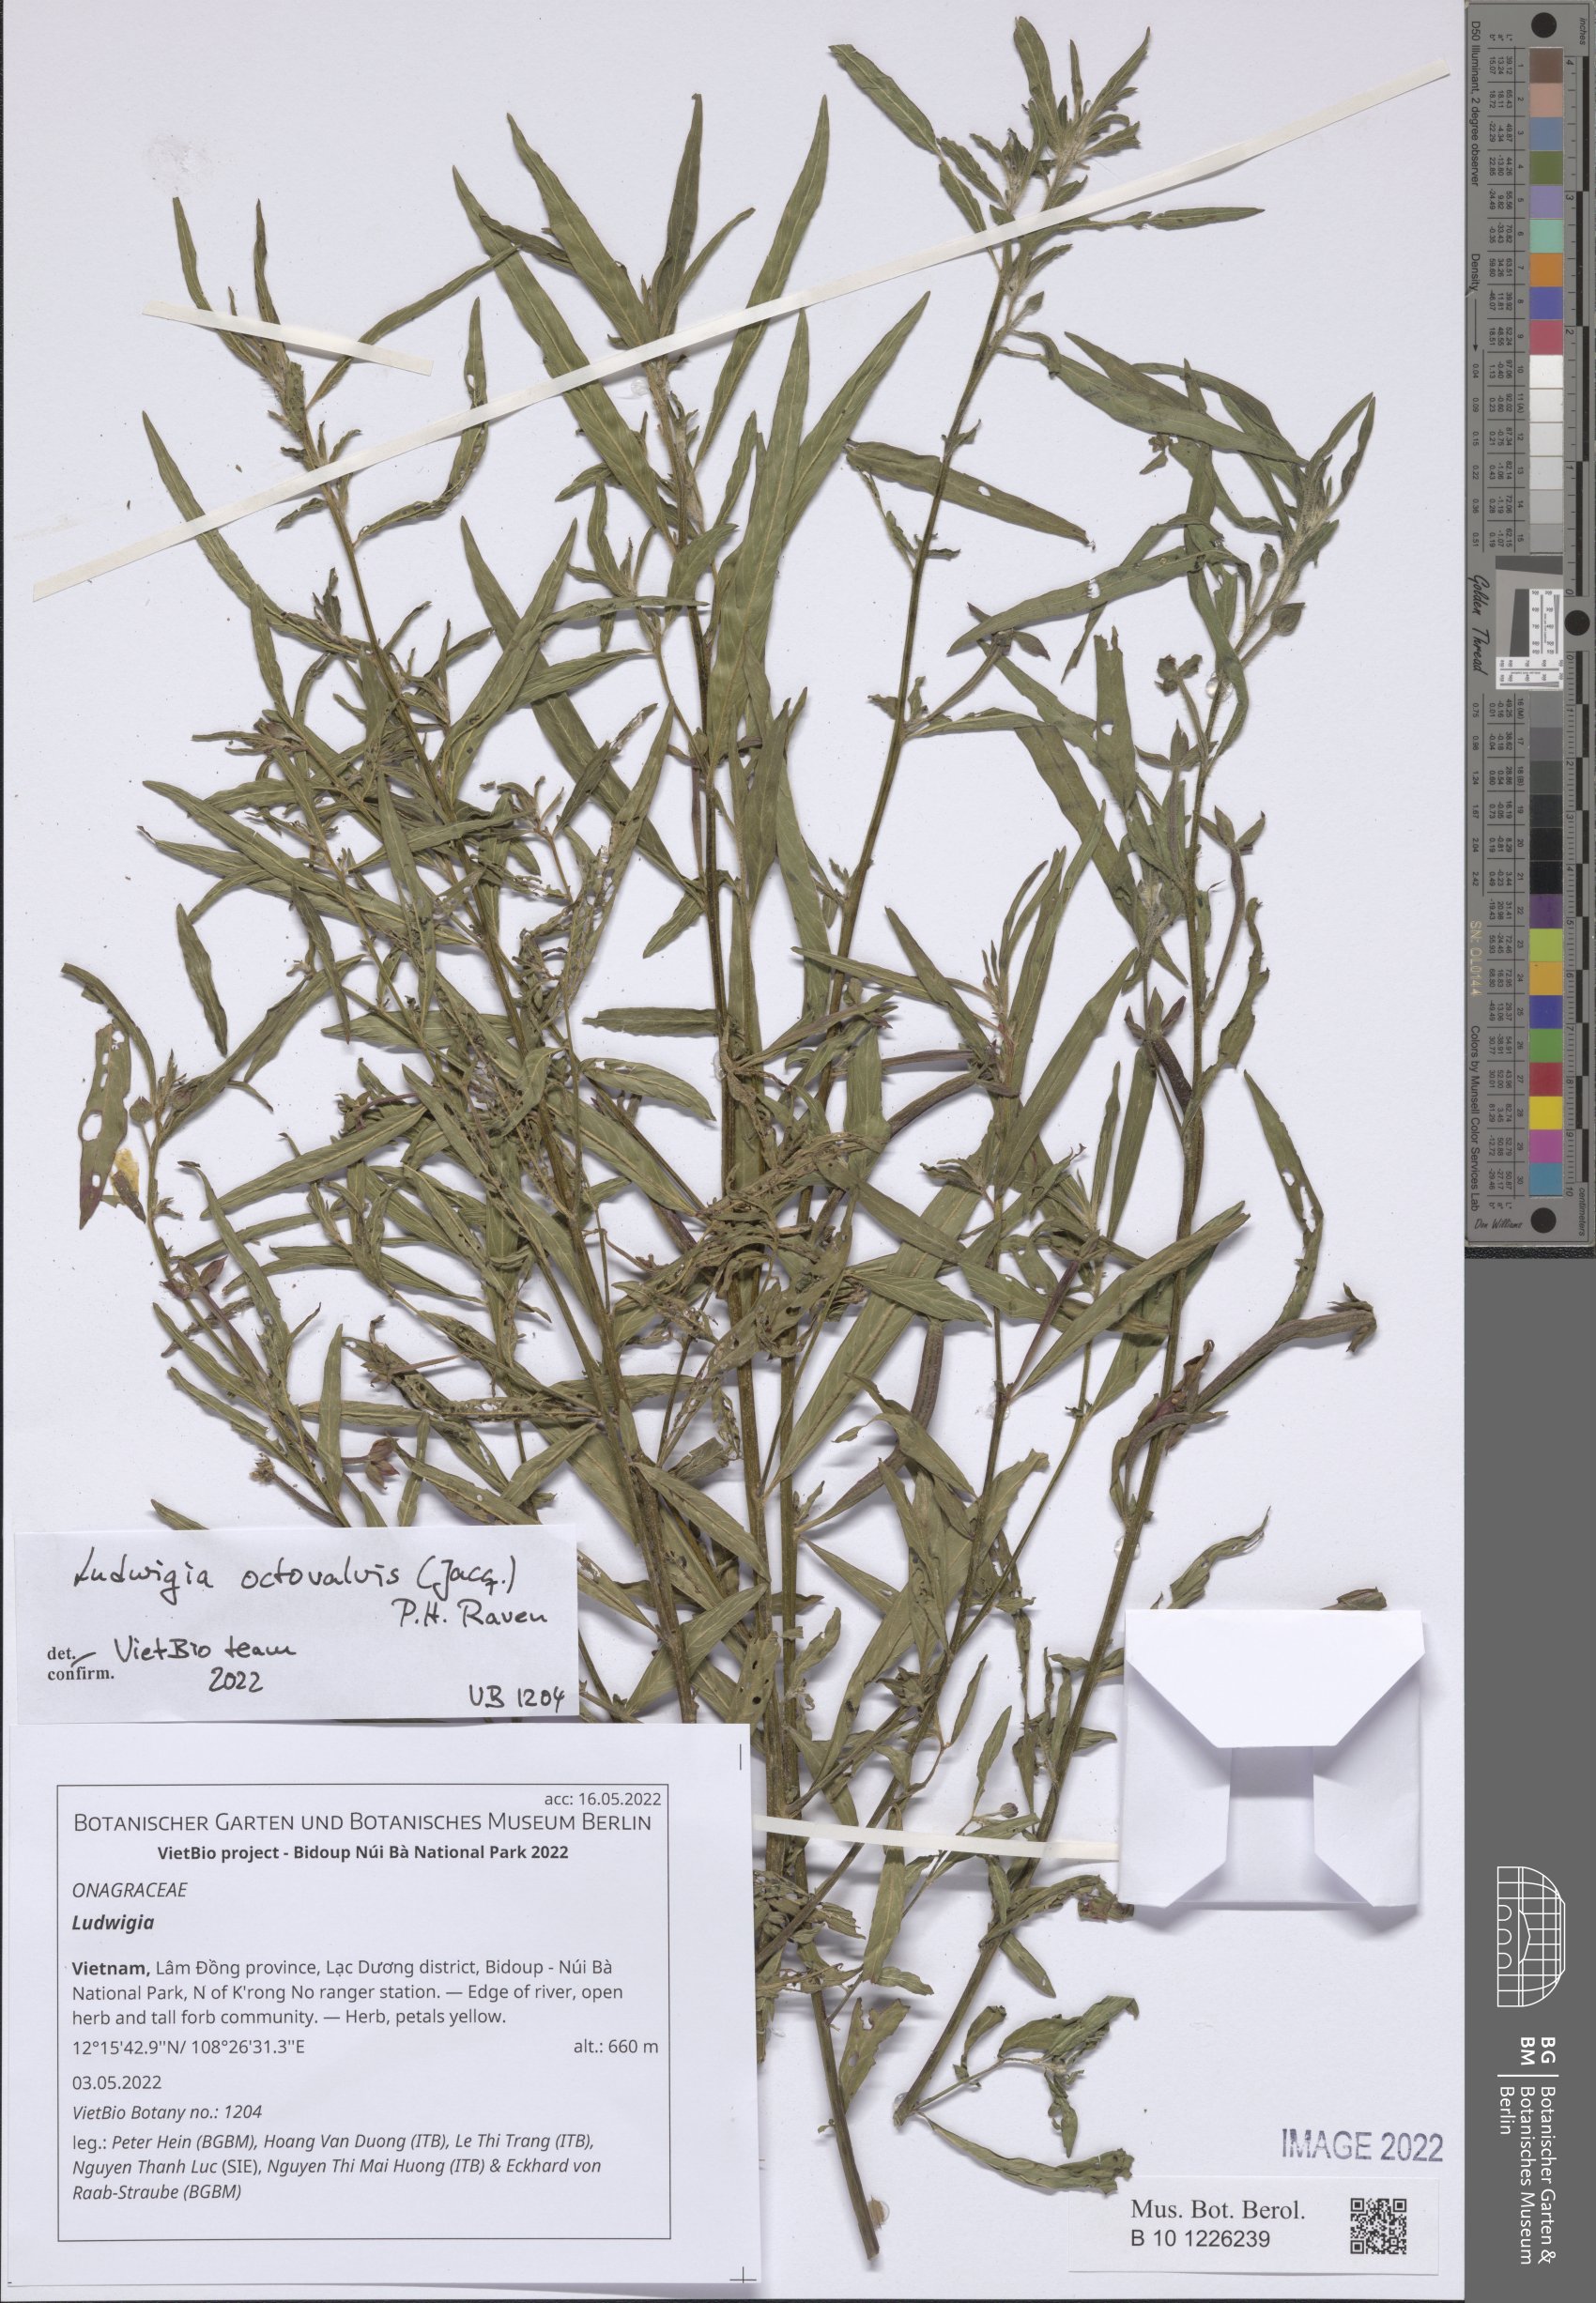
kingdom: Plantae
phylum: Tracheophyta
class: Magnoliopsida
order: Myrtales
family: Onagraceae
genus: Ludwigia
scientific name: Ludwigia
